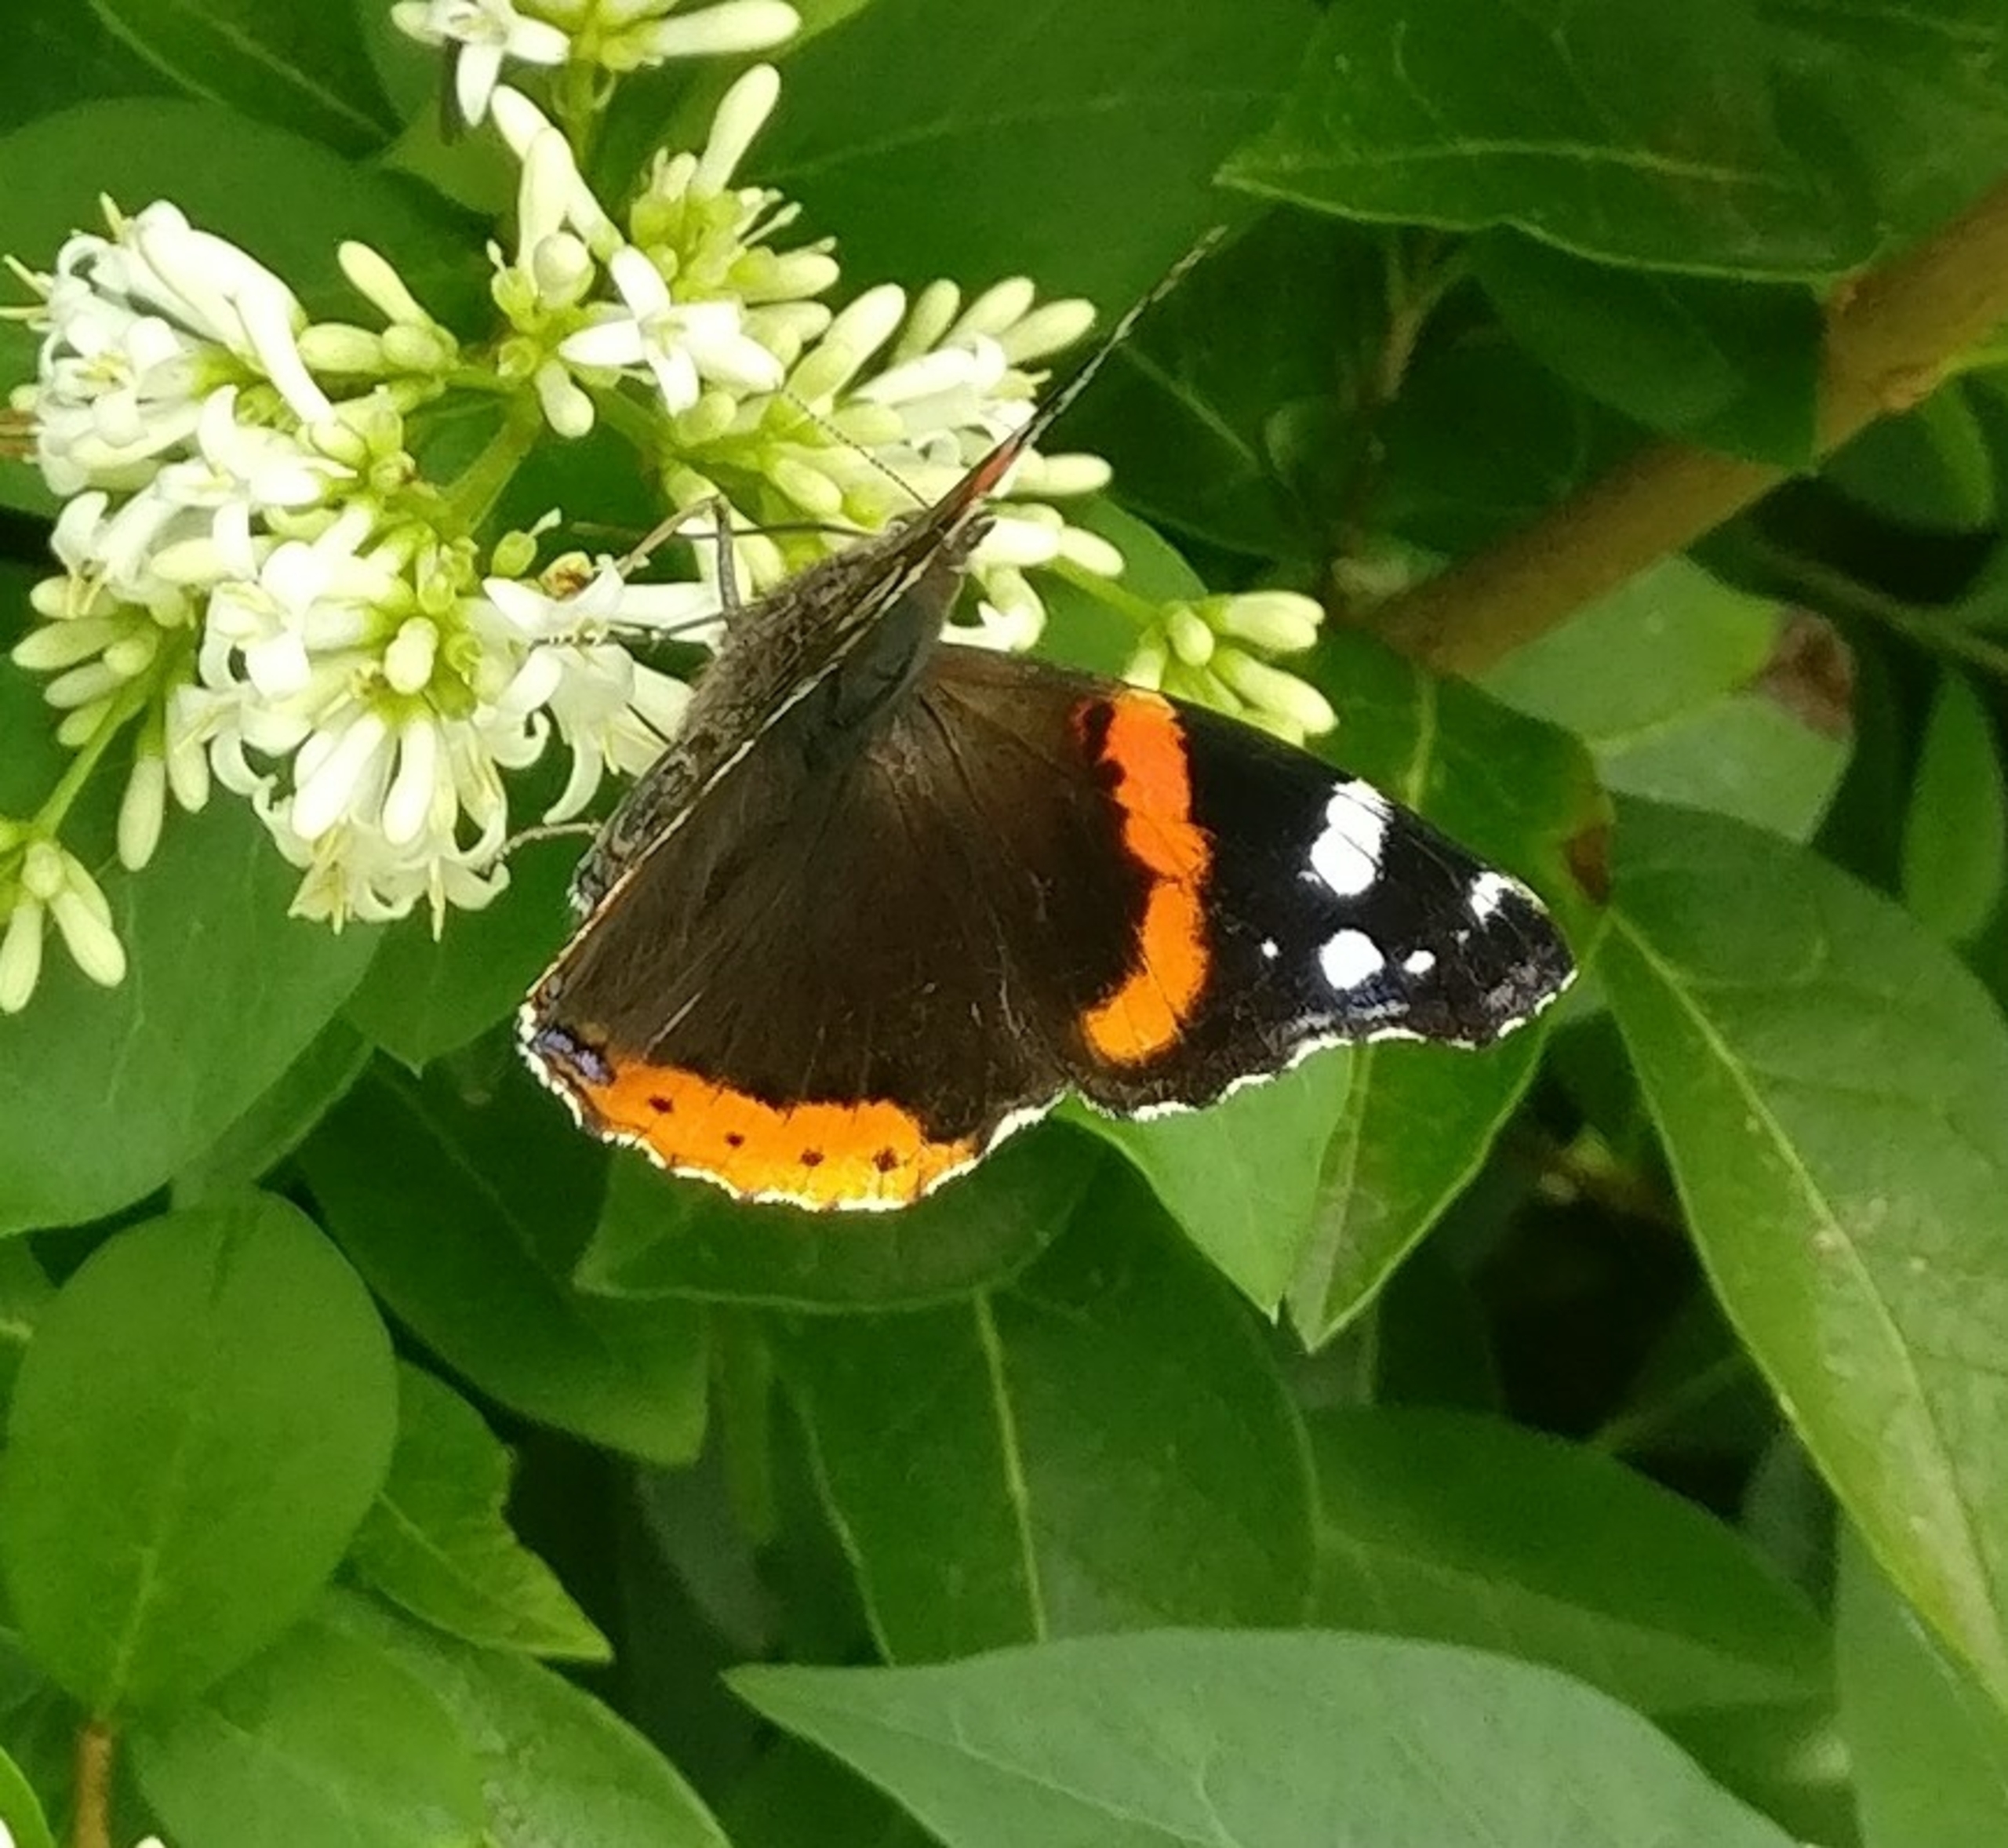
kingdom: Animalia
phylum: Arthropoda
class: Insecta
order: Lepidoptera
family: Nymphalidae
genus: Vanessa
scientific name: Vanessa atalanta
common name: Admiral
